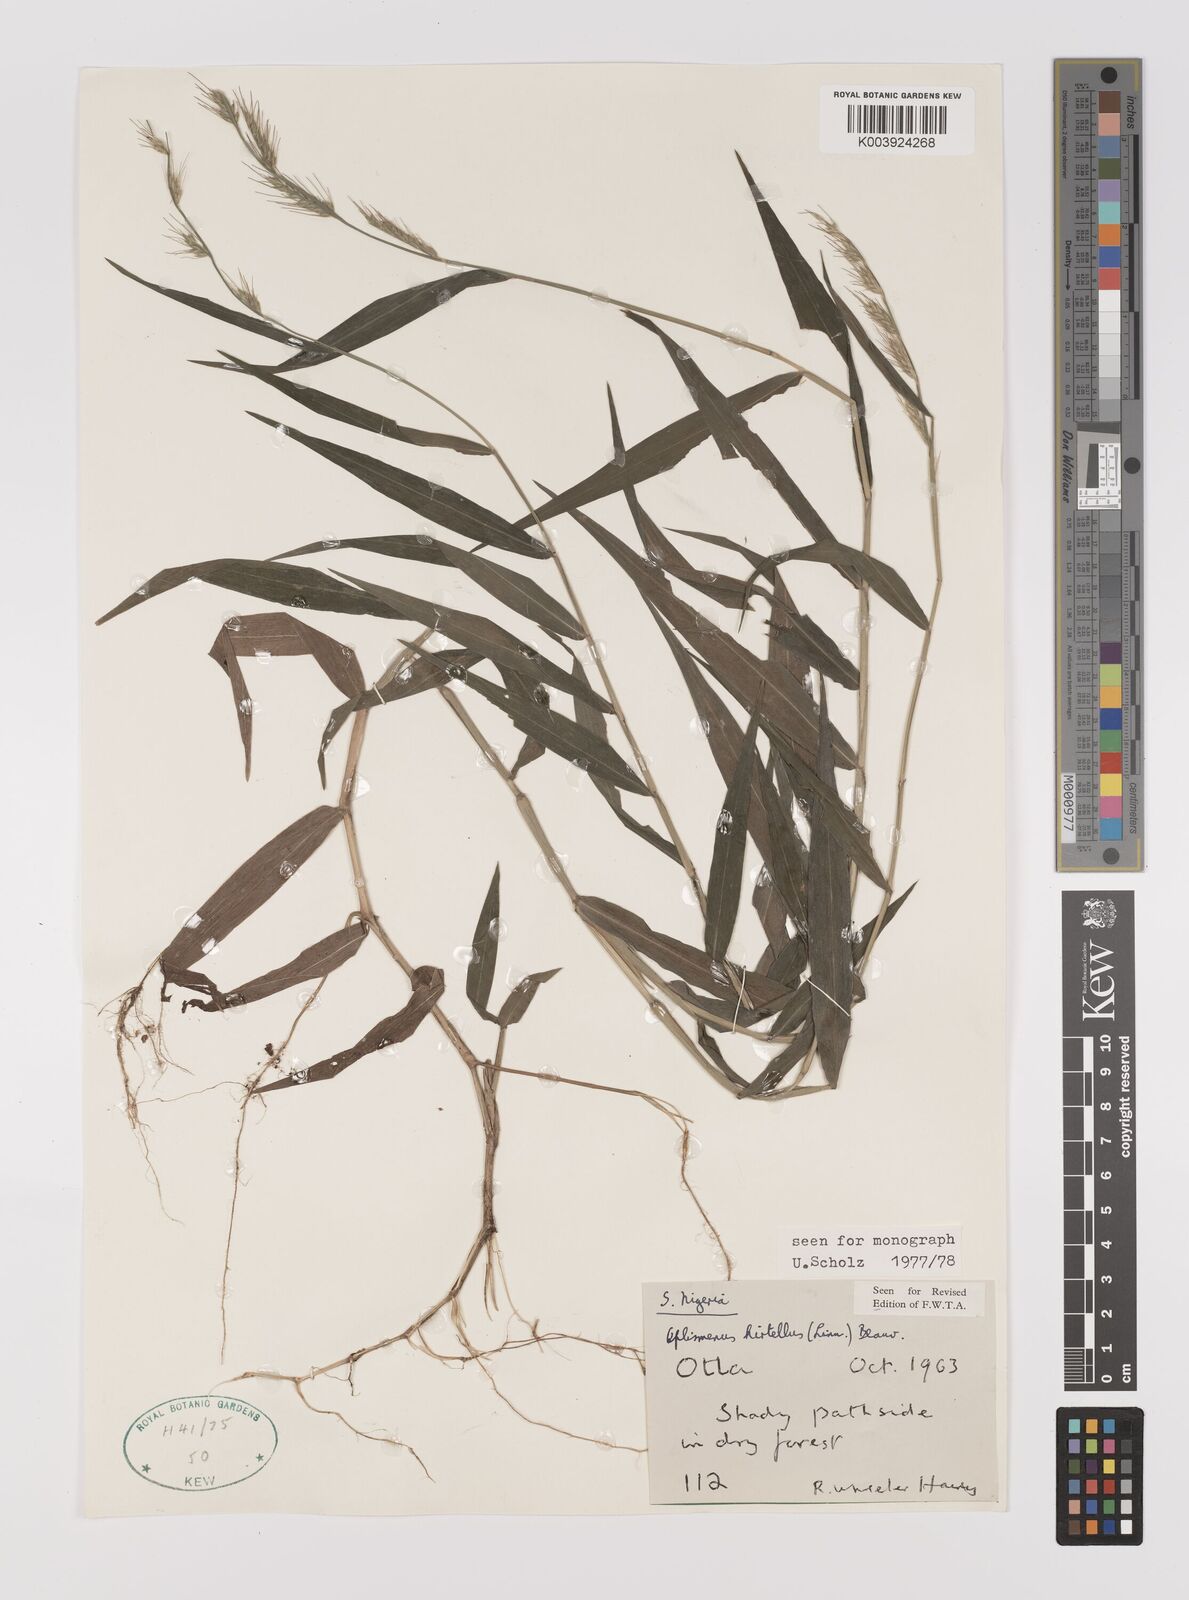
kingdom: Plantae
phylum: Tracheophyta
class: Liliopsida
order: Poales
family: Poaceae
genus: Oplismenus
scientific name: Oplismenus hirtellus
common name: Basketgrass
